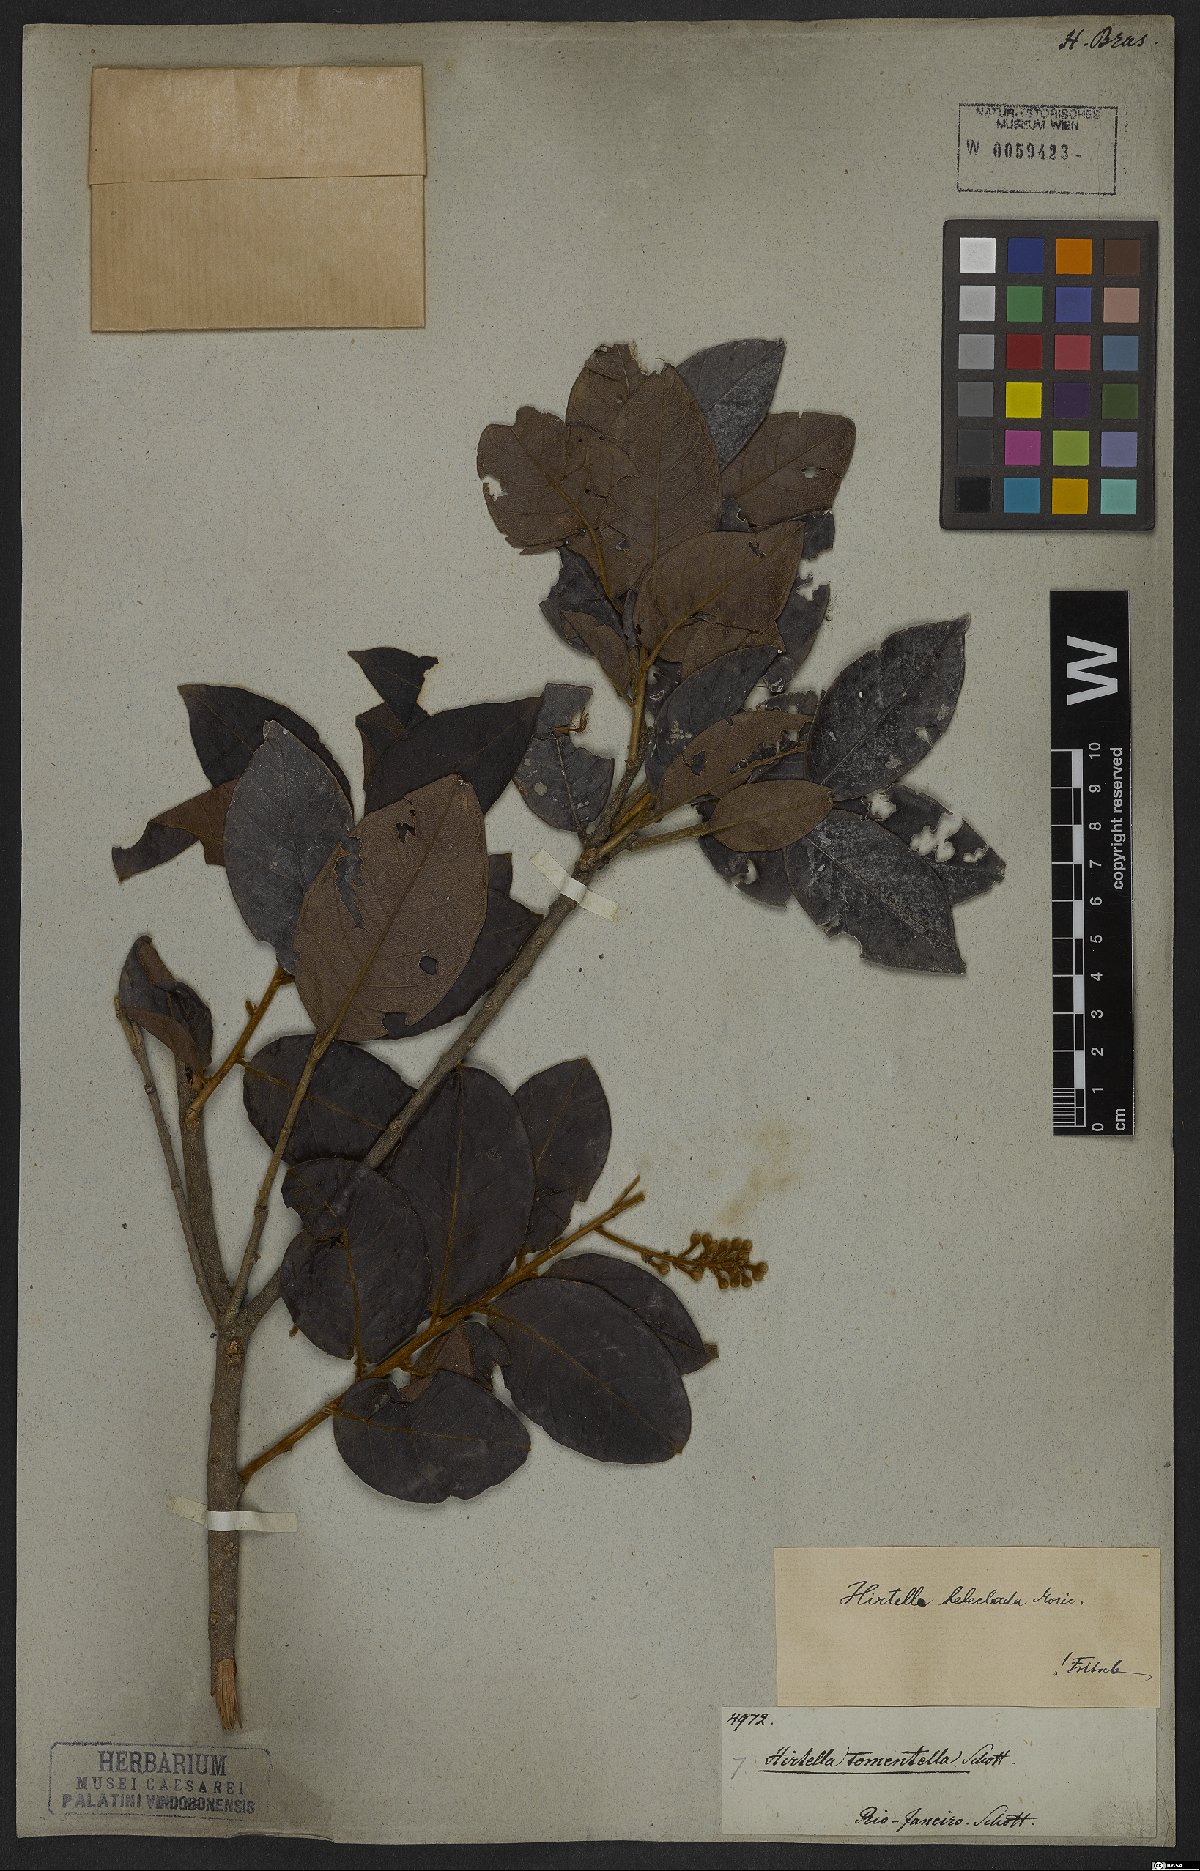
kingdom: Plantae
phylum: Tracheophyta
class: Magnoliopsida
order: Malpighiales
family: Chrysobalanaceae
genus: Hirtella
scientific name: Hirtella hebeclada
